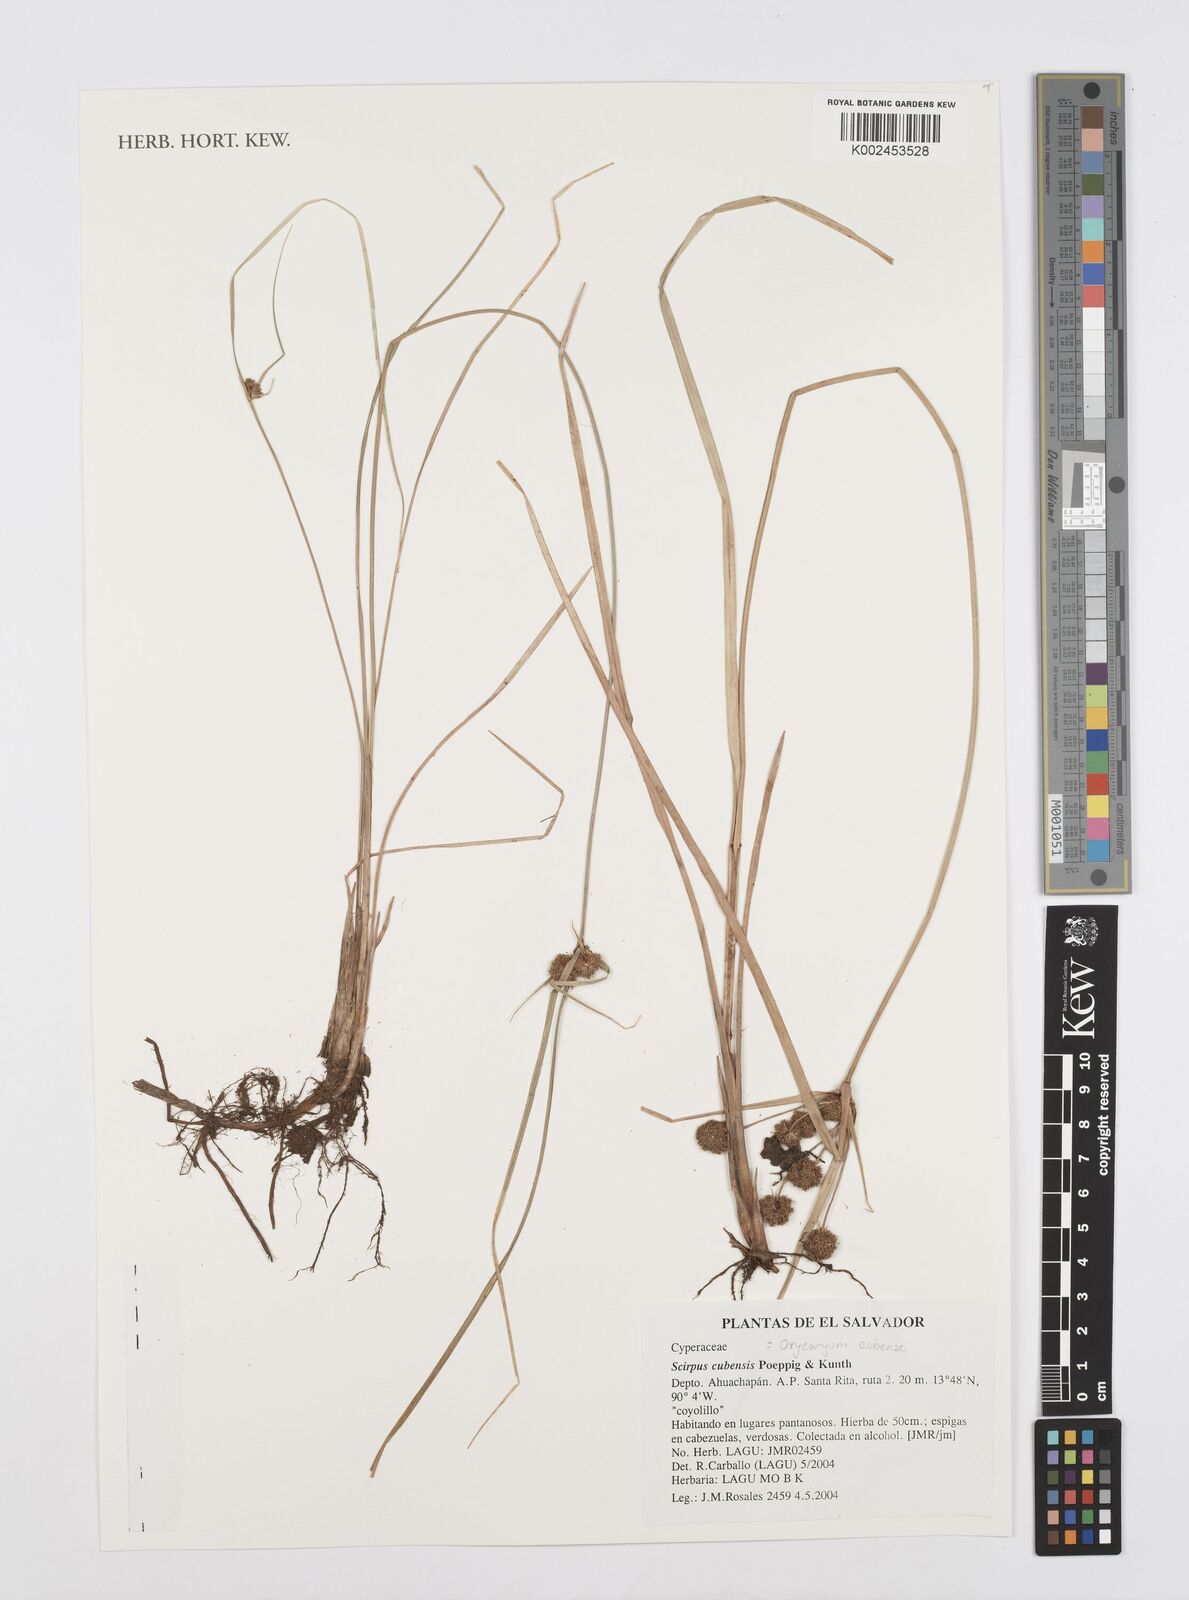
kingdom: Plantae
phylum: Tracheophyta
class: Liliopsida
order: Poales
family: Cyperaceae
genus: Cyperus
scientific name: Cyperus elegans
